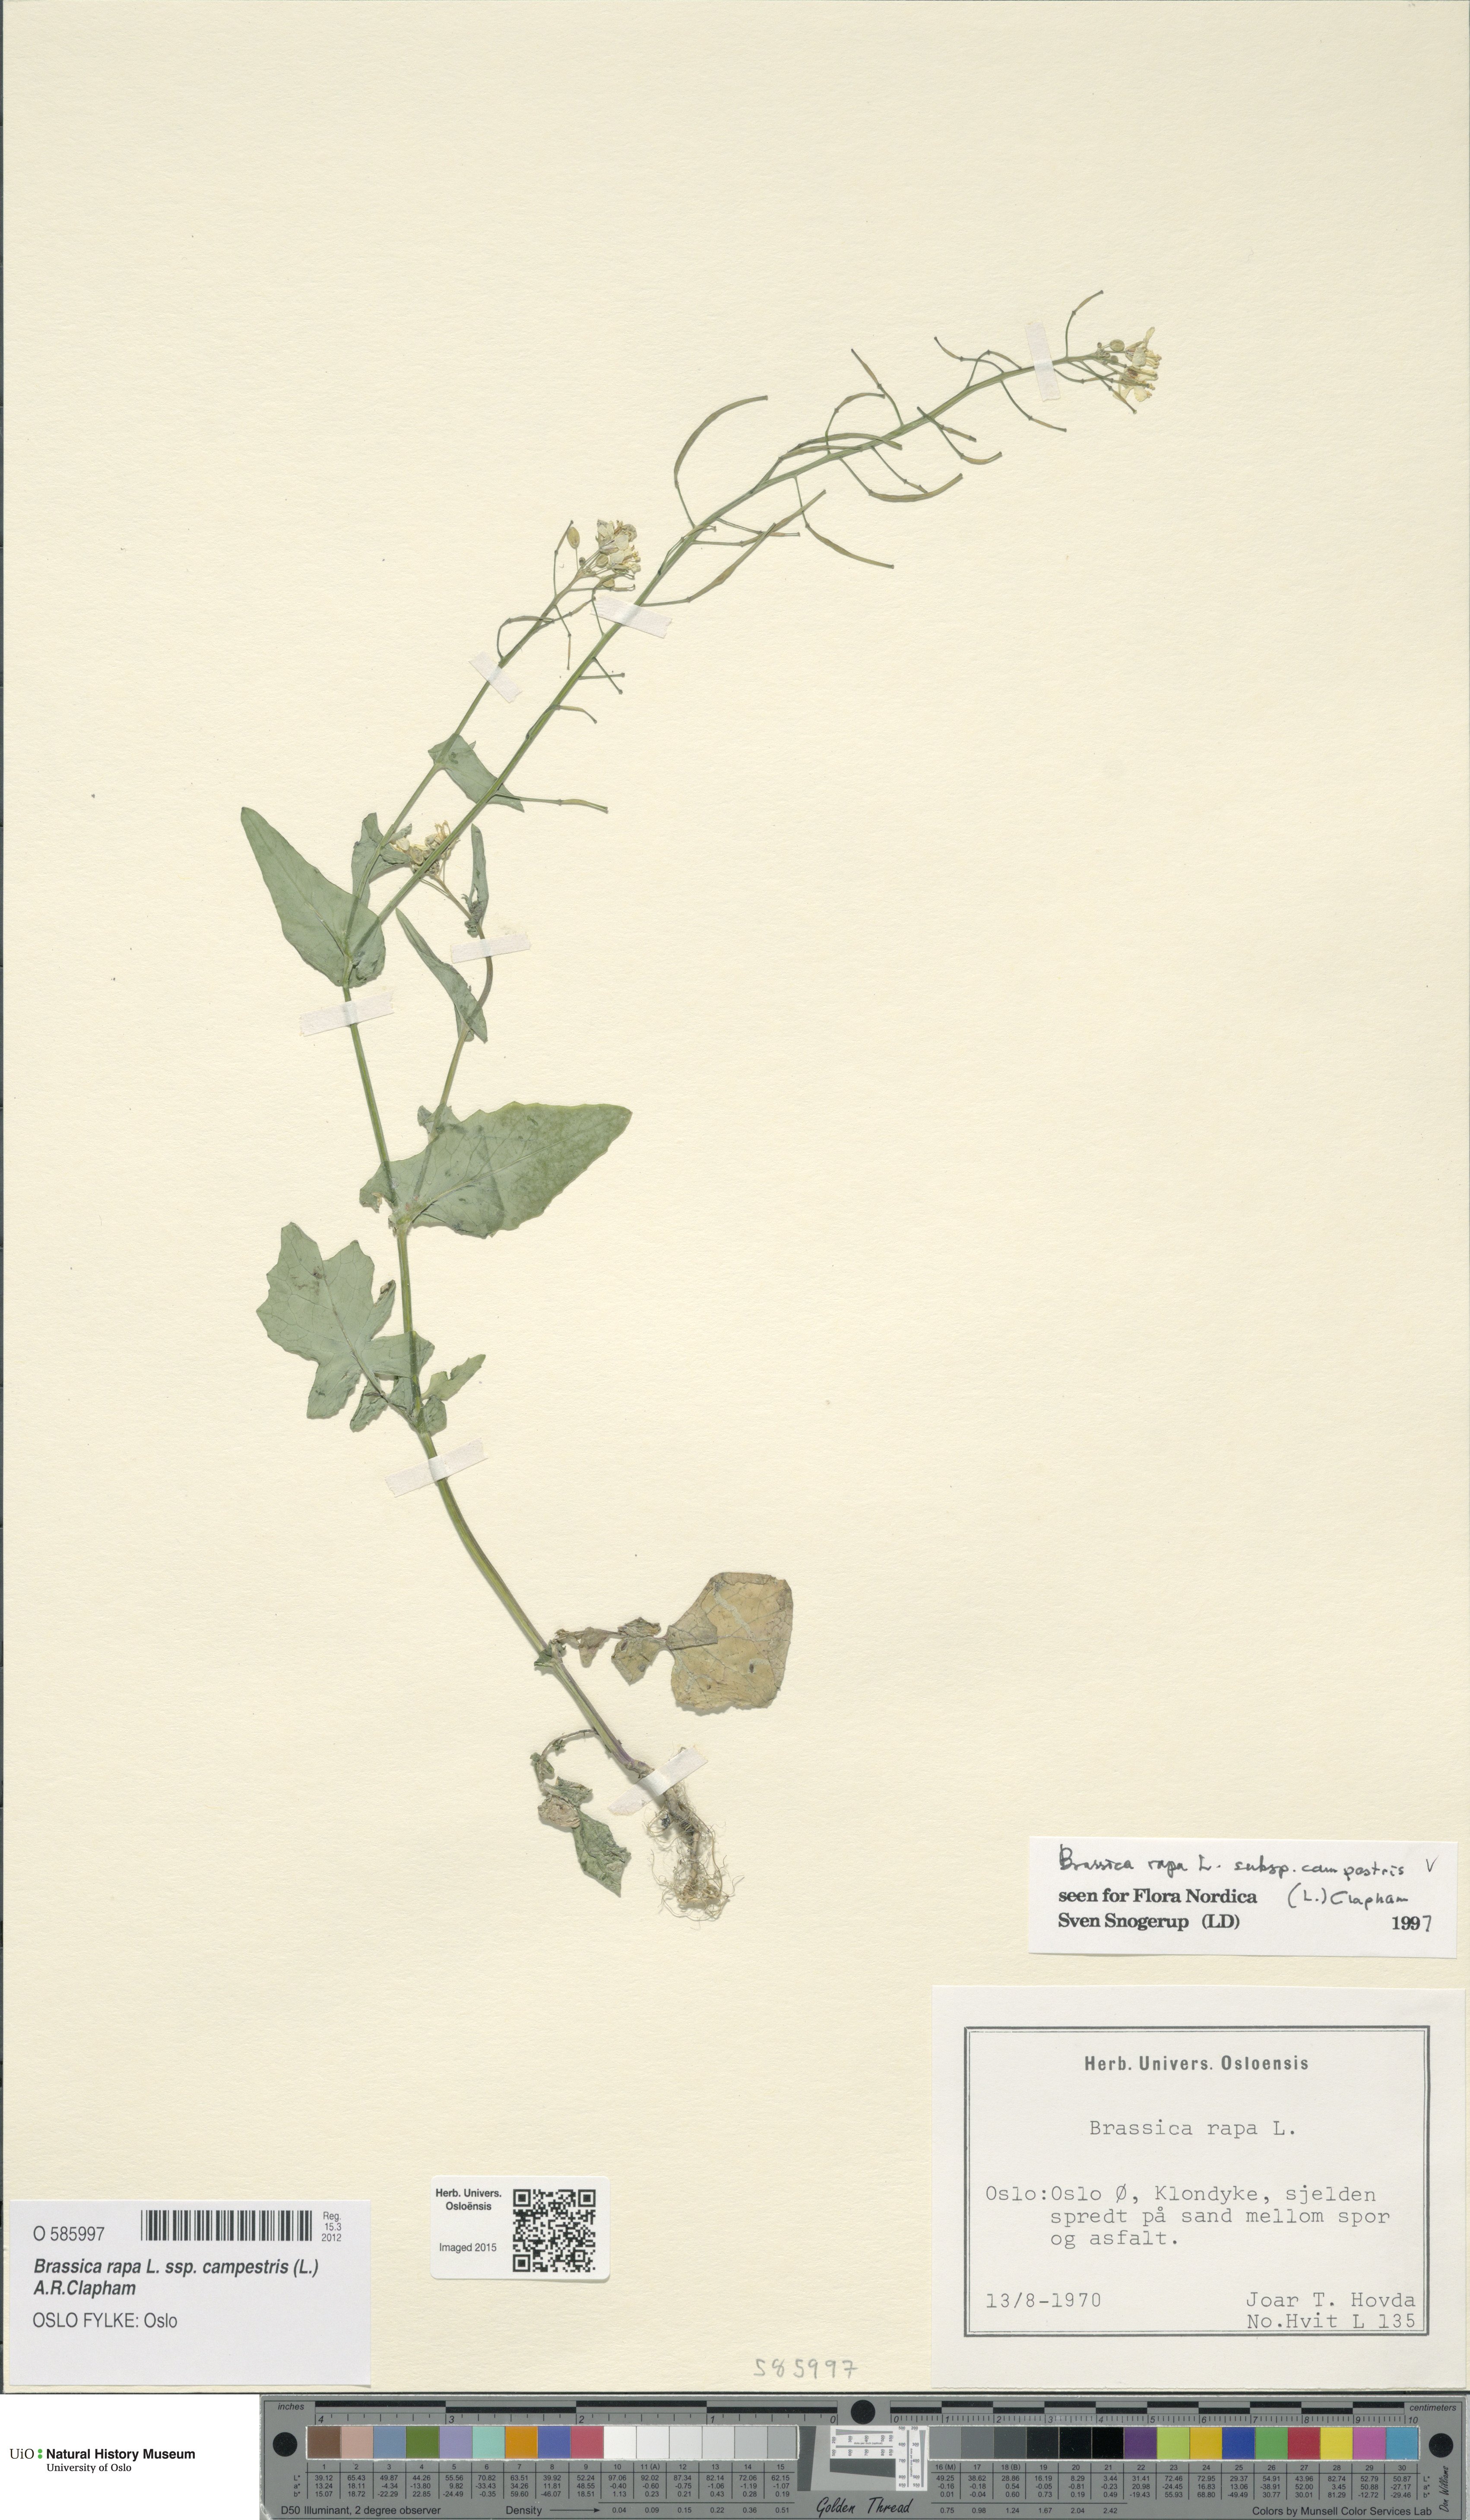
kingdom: Plantae
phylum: Tracheophyta
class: Magnoliopsida
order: Brassicales
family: Brassicaceae
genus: Brassica
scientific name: Brassica rapa
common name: Field mustard
